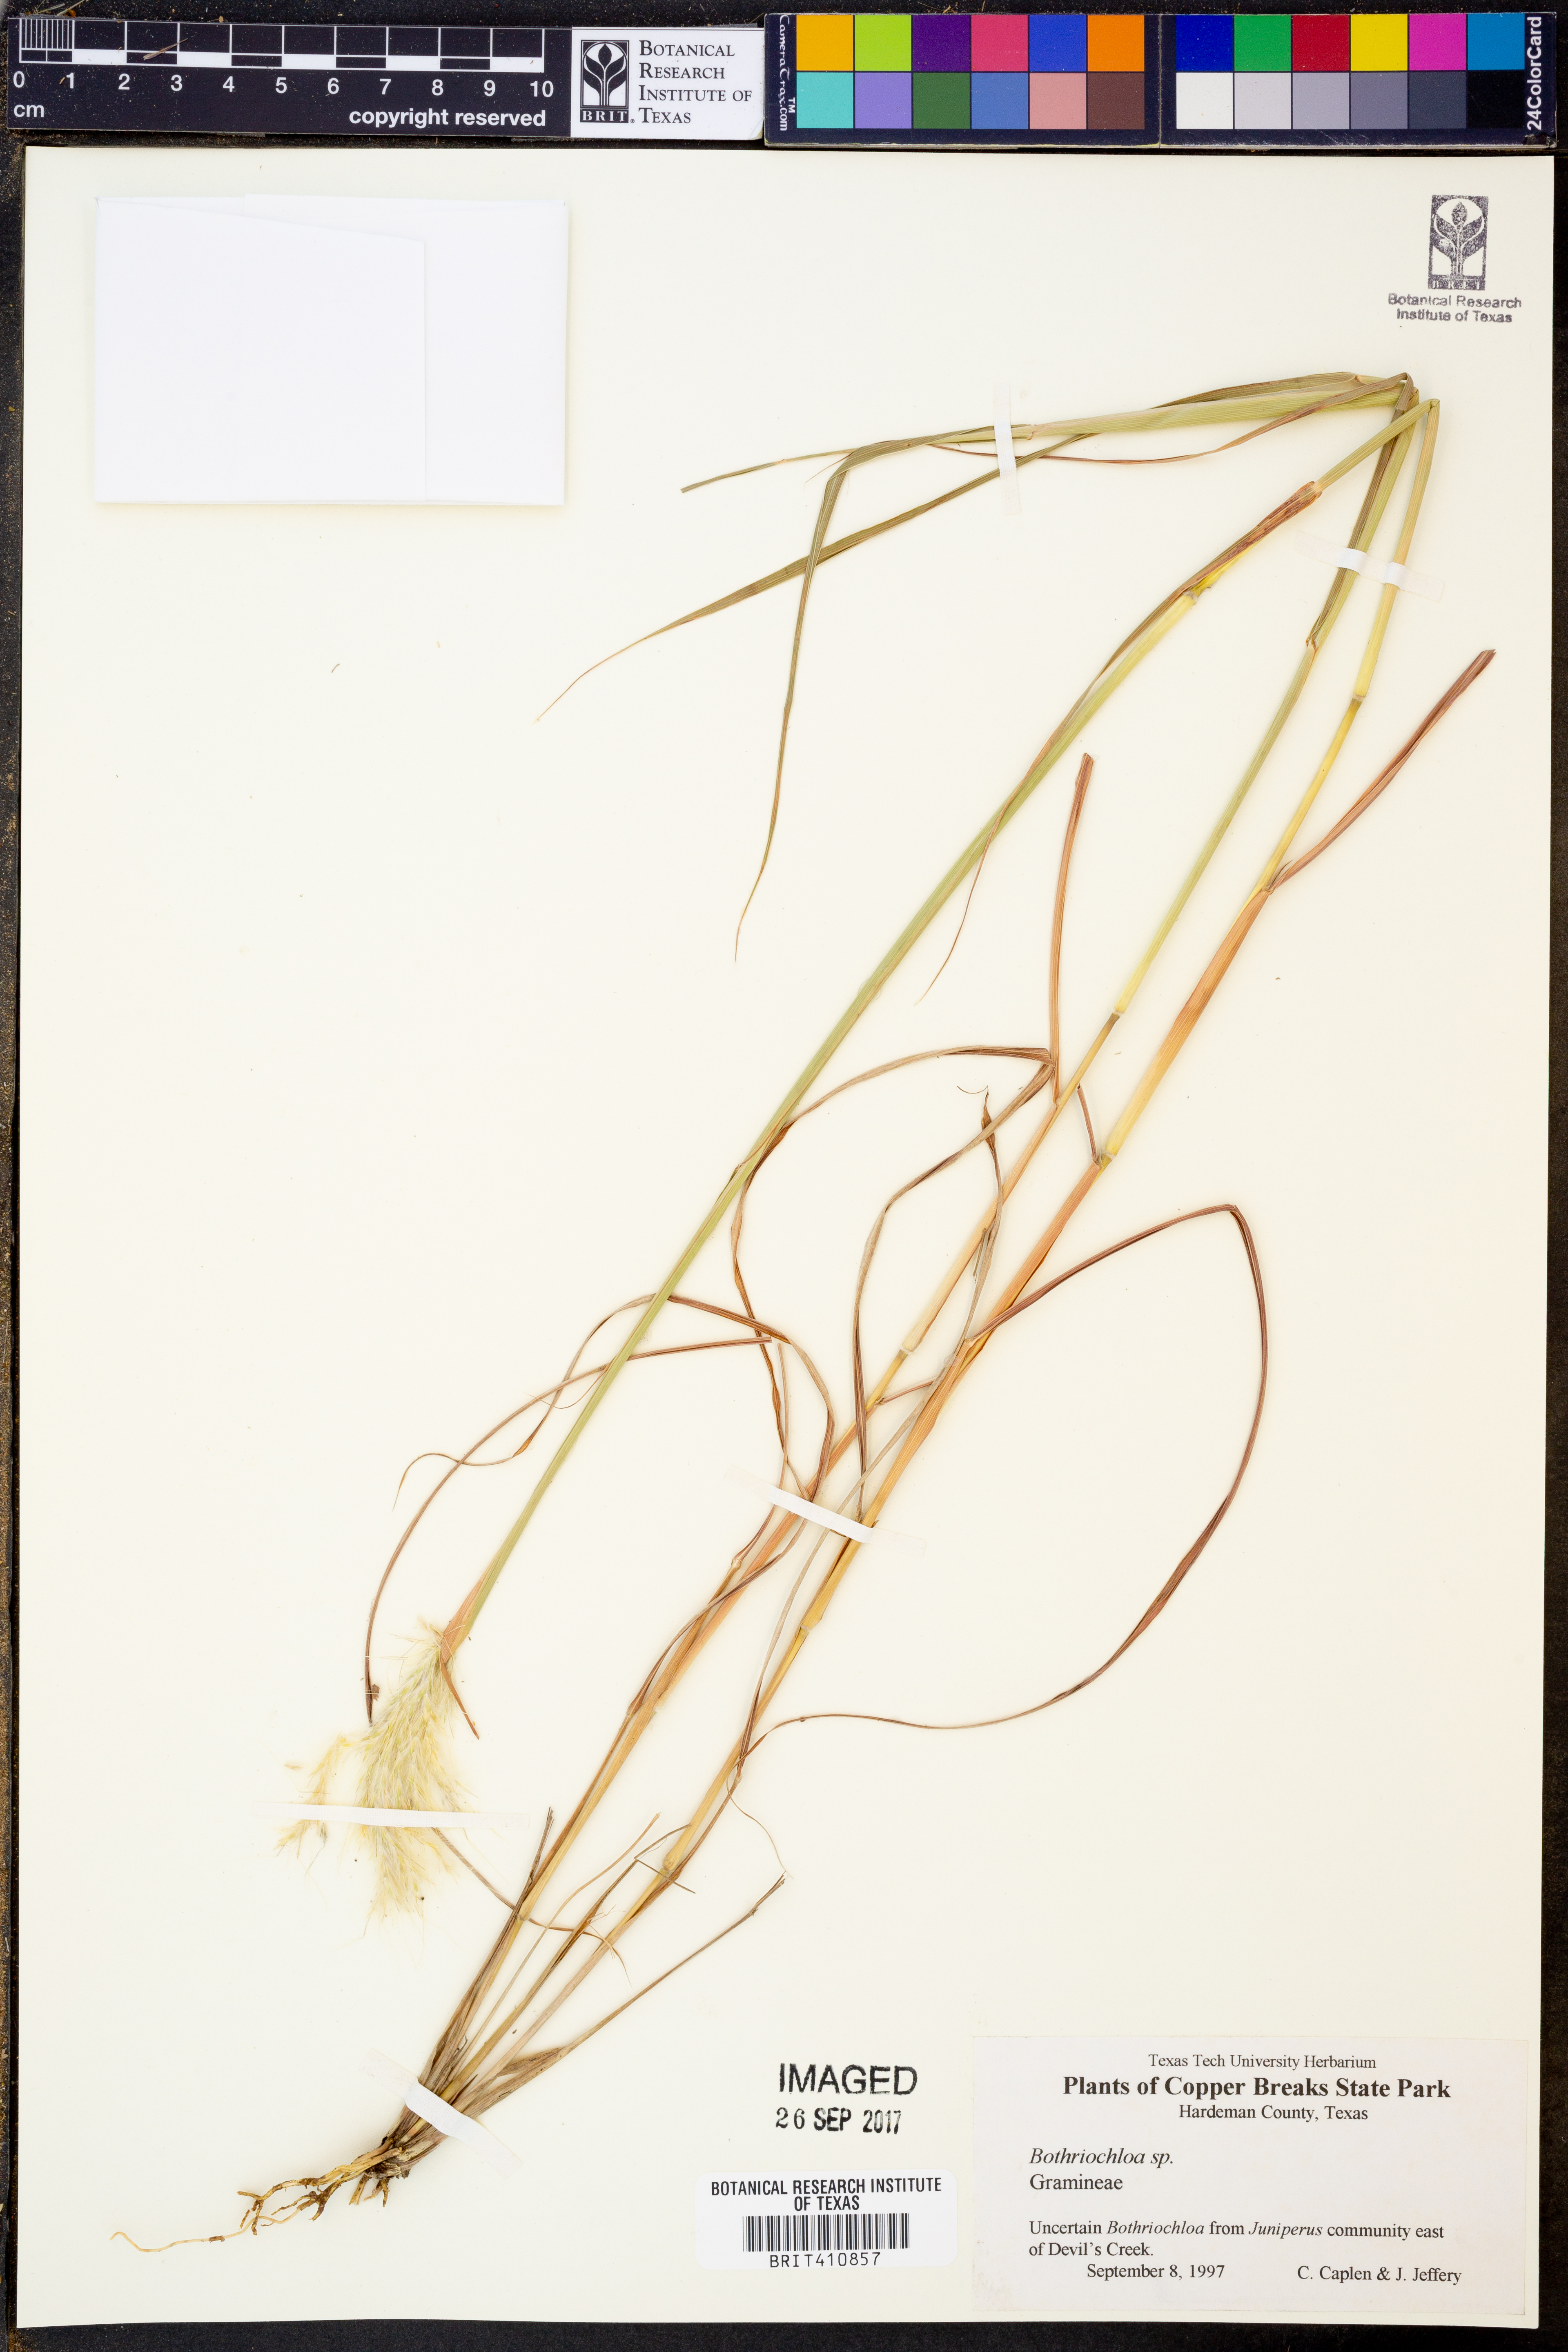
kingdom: Plantae
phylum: Tracheophyta
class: Liliopsida
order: Poales
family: Poaceae
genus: Bothriochloa
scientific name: Bothriochloa
